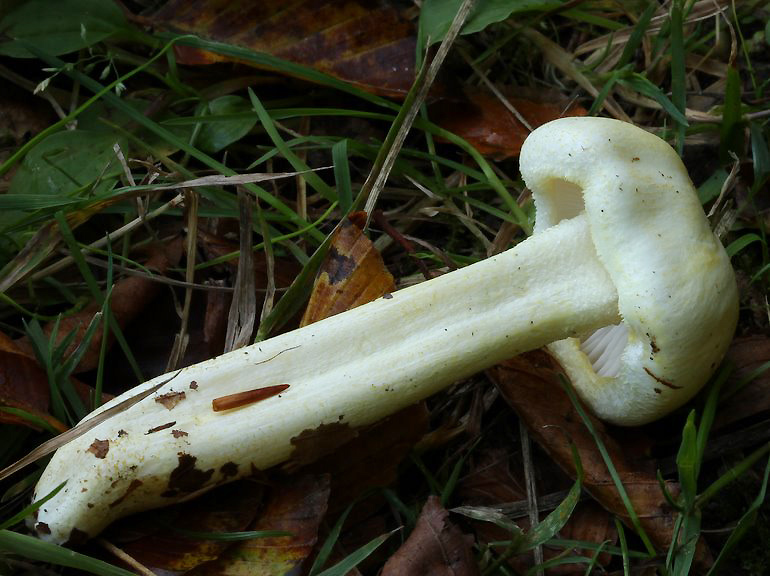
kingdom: Fungi
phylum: Basidiomycota
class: Agaricomycetes
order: Agaricales
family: Hygrophoraceae
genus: Hygrophorus
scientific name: Hygrophorus chrysodon
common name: gulfnugget sneglehat
